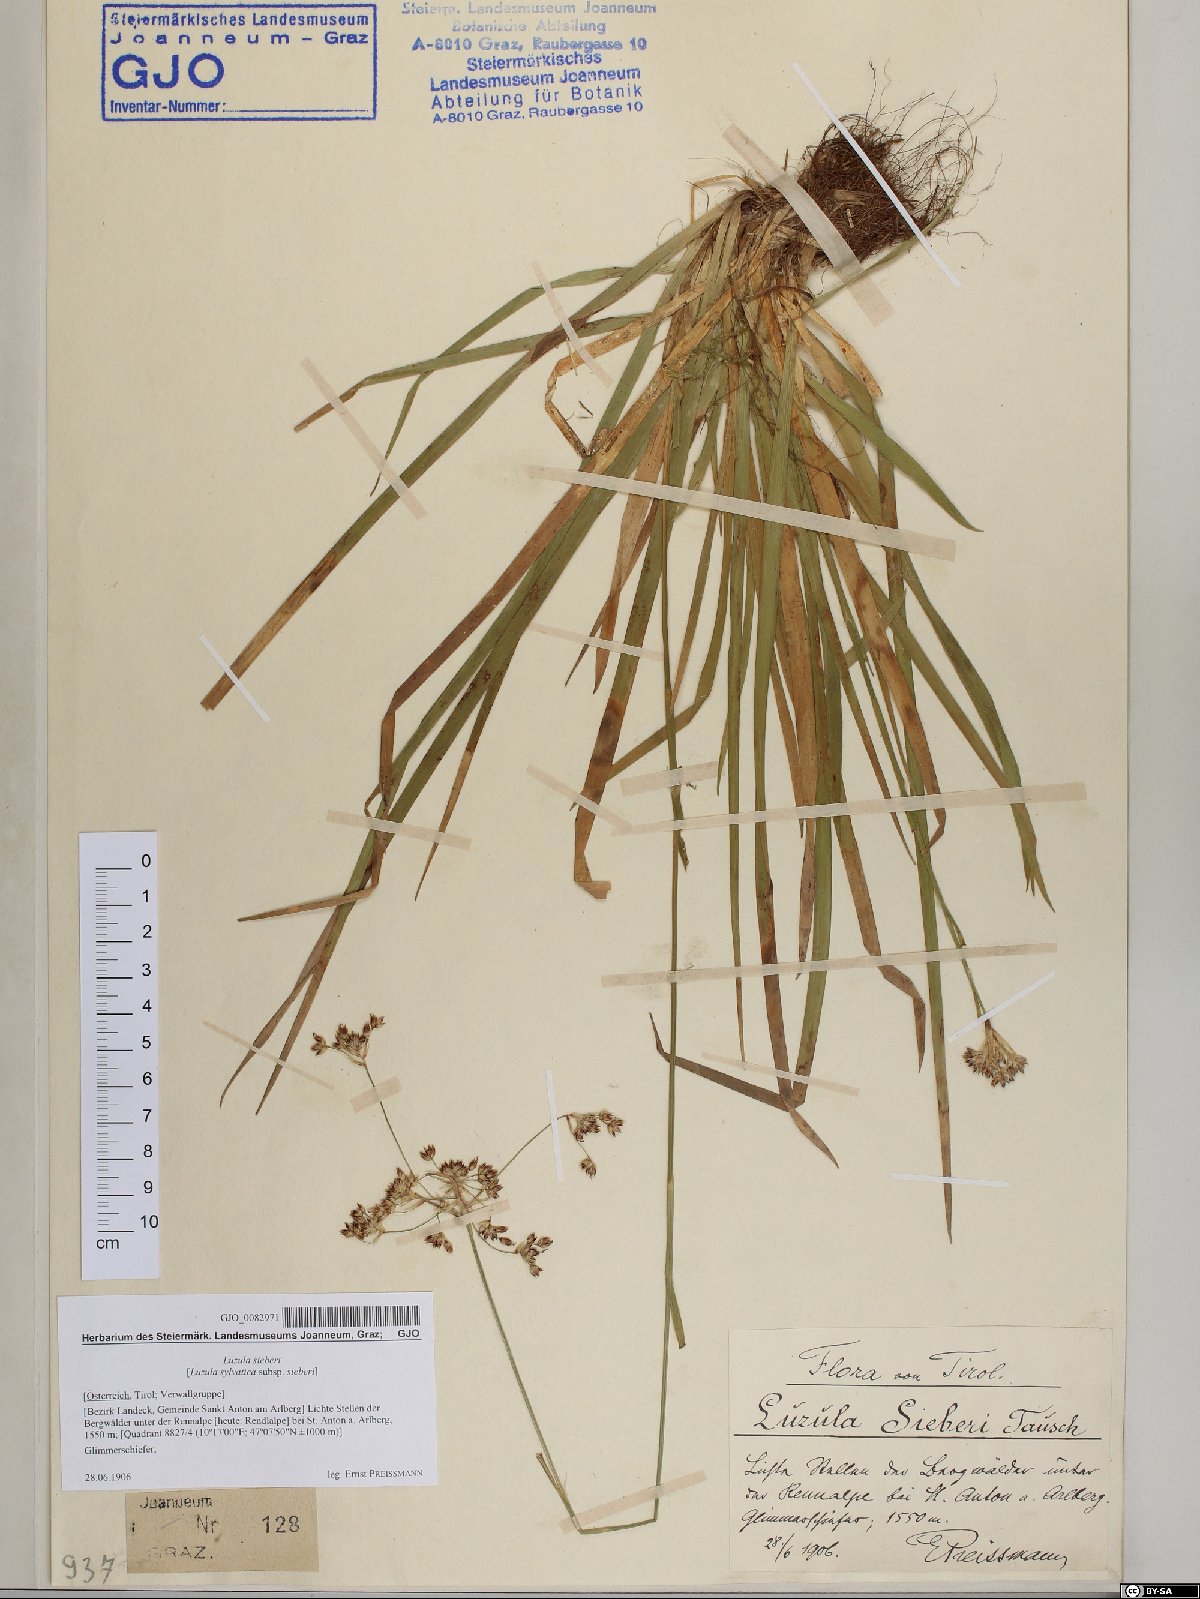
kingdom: Plantae
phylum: Tracheophyta
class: Liliopsida
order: Poales
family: Juncaceae
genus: Luzula
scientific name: Luzula sylvatica
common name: Great wood-rush
